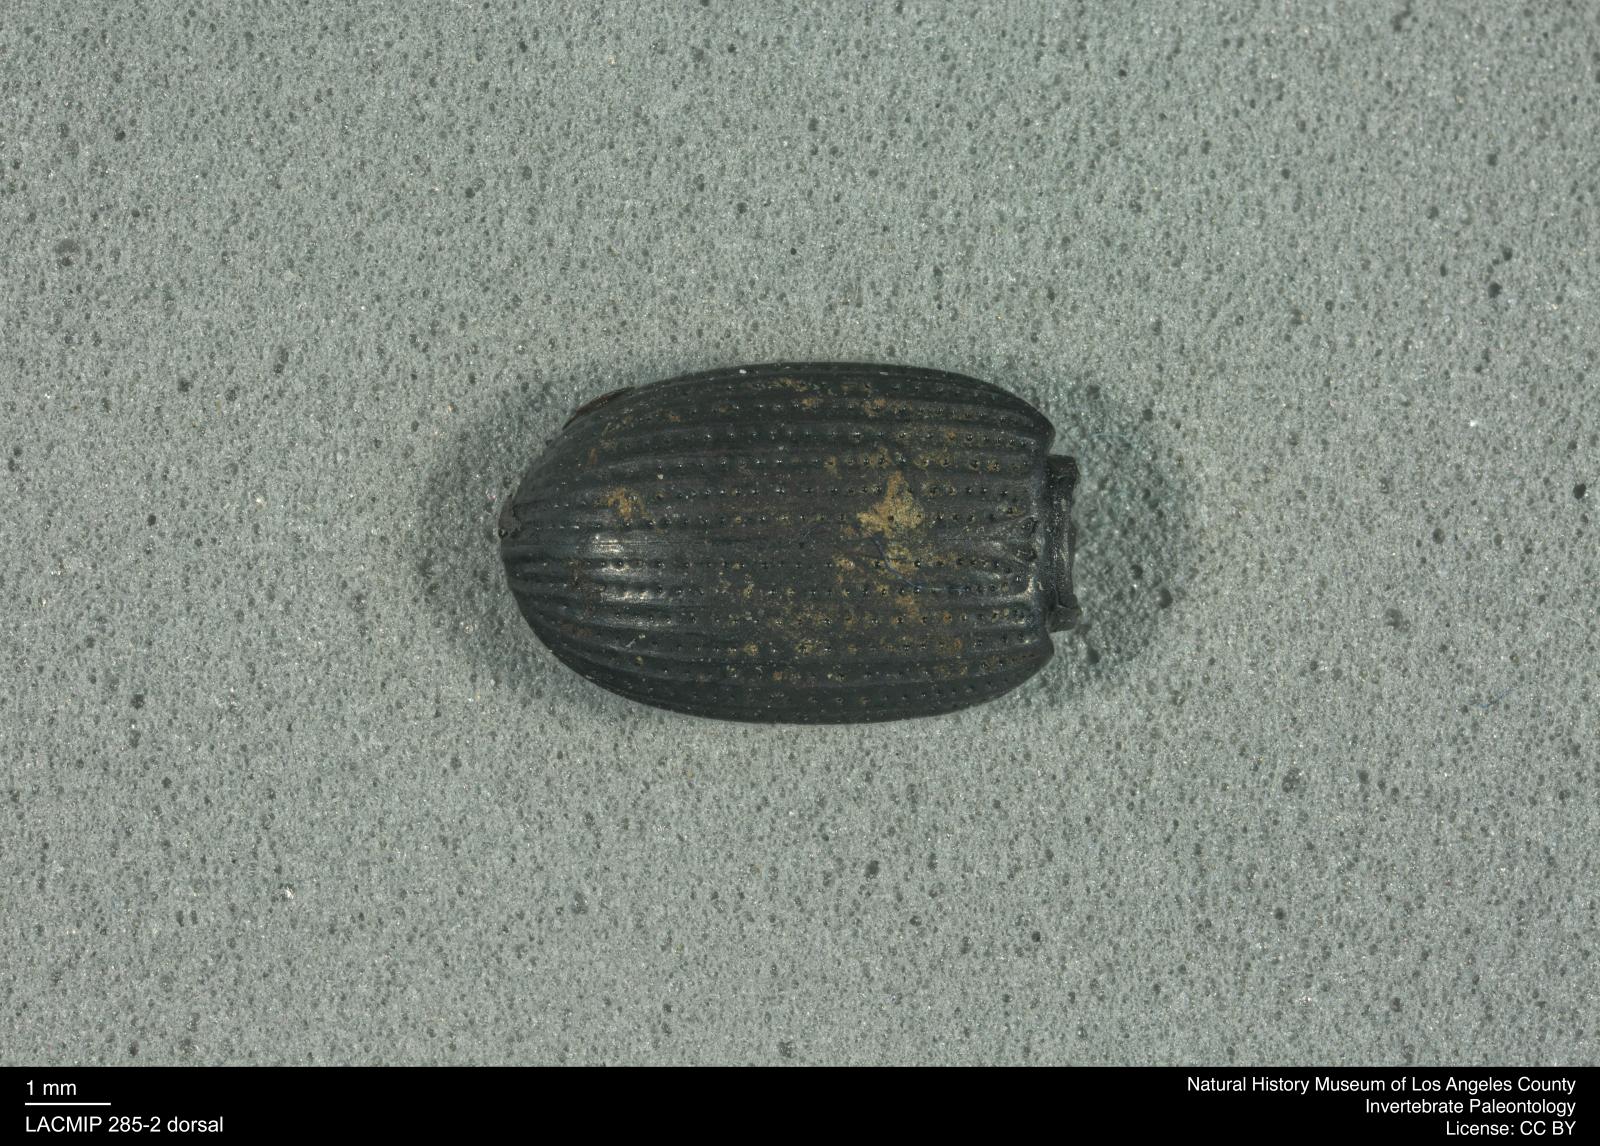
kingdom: Animalia
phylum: Arthropoda
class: Insecta
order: Coleoptera
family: Tenebrionidae
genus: Apsena
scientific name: Apsena laticornis
